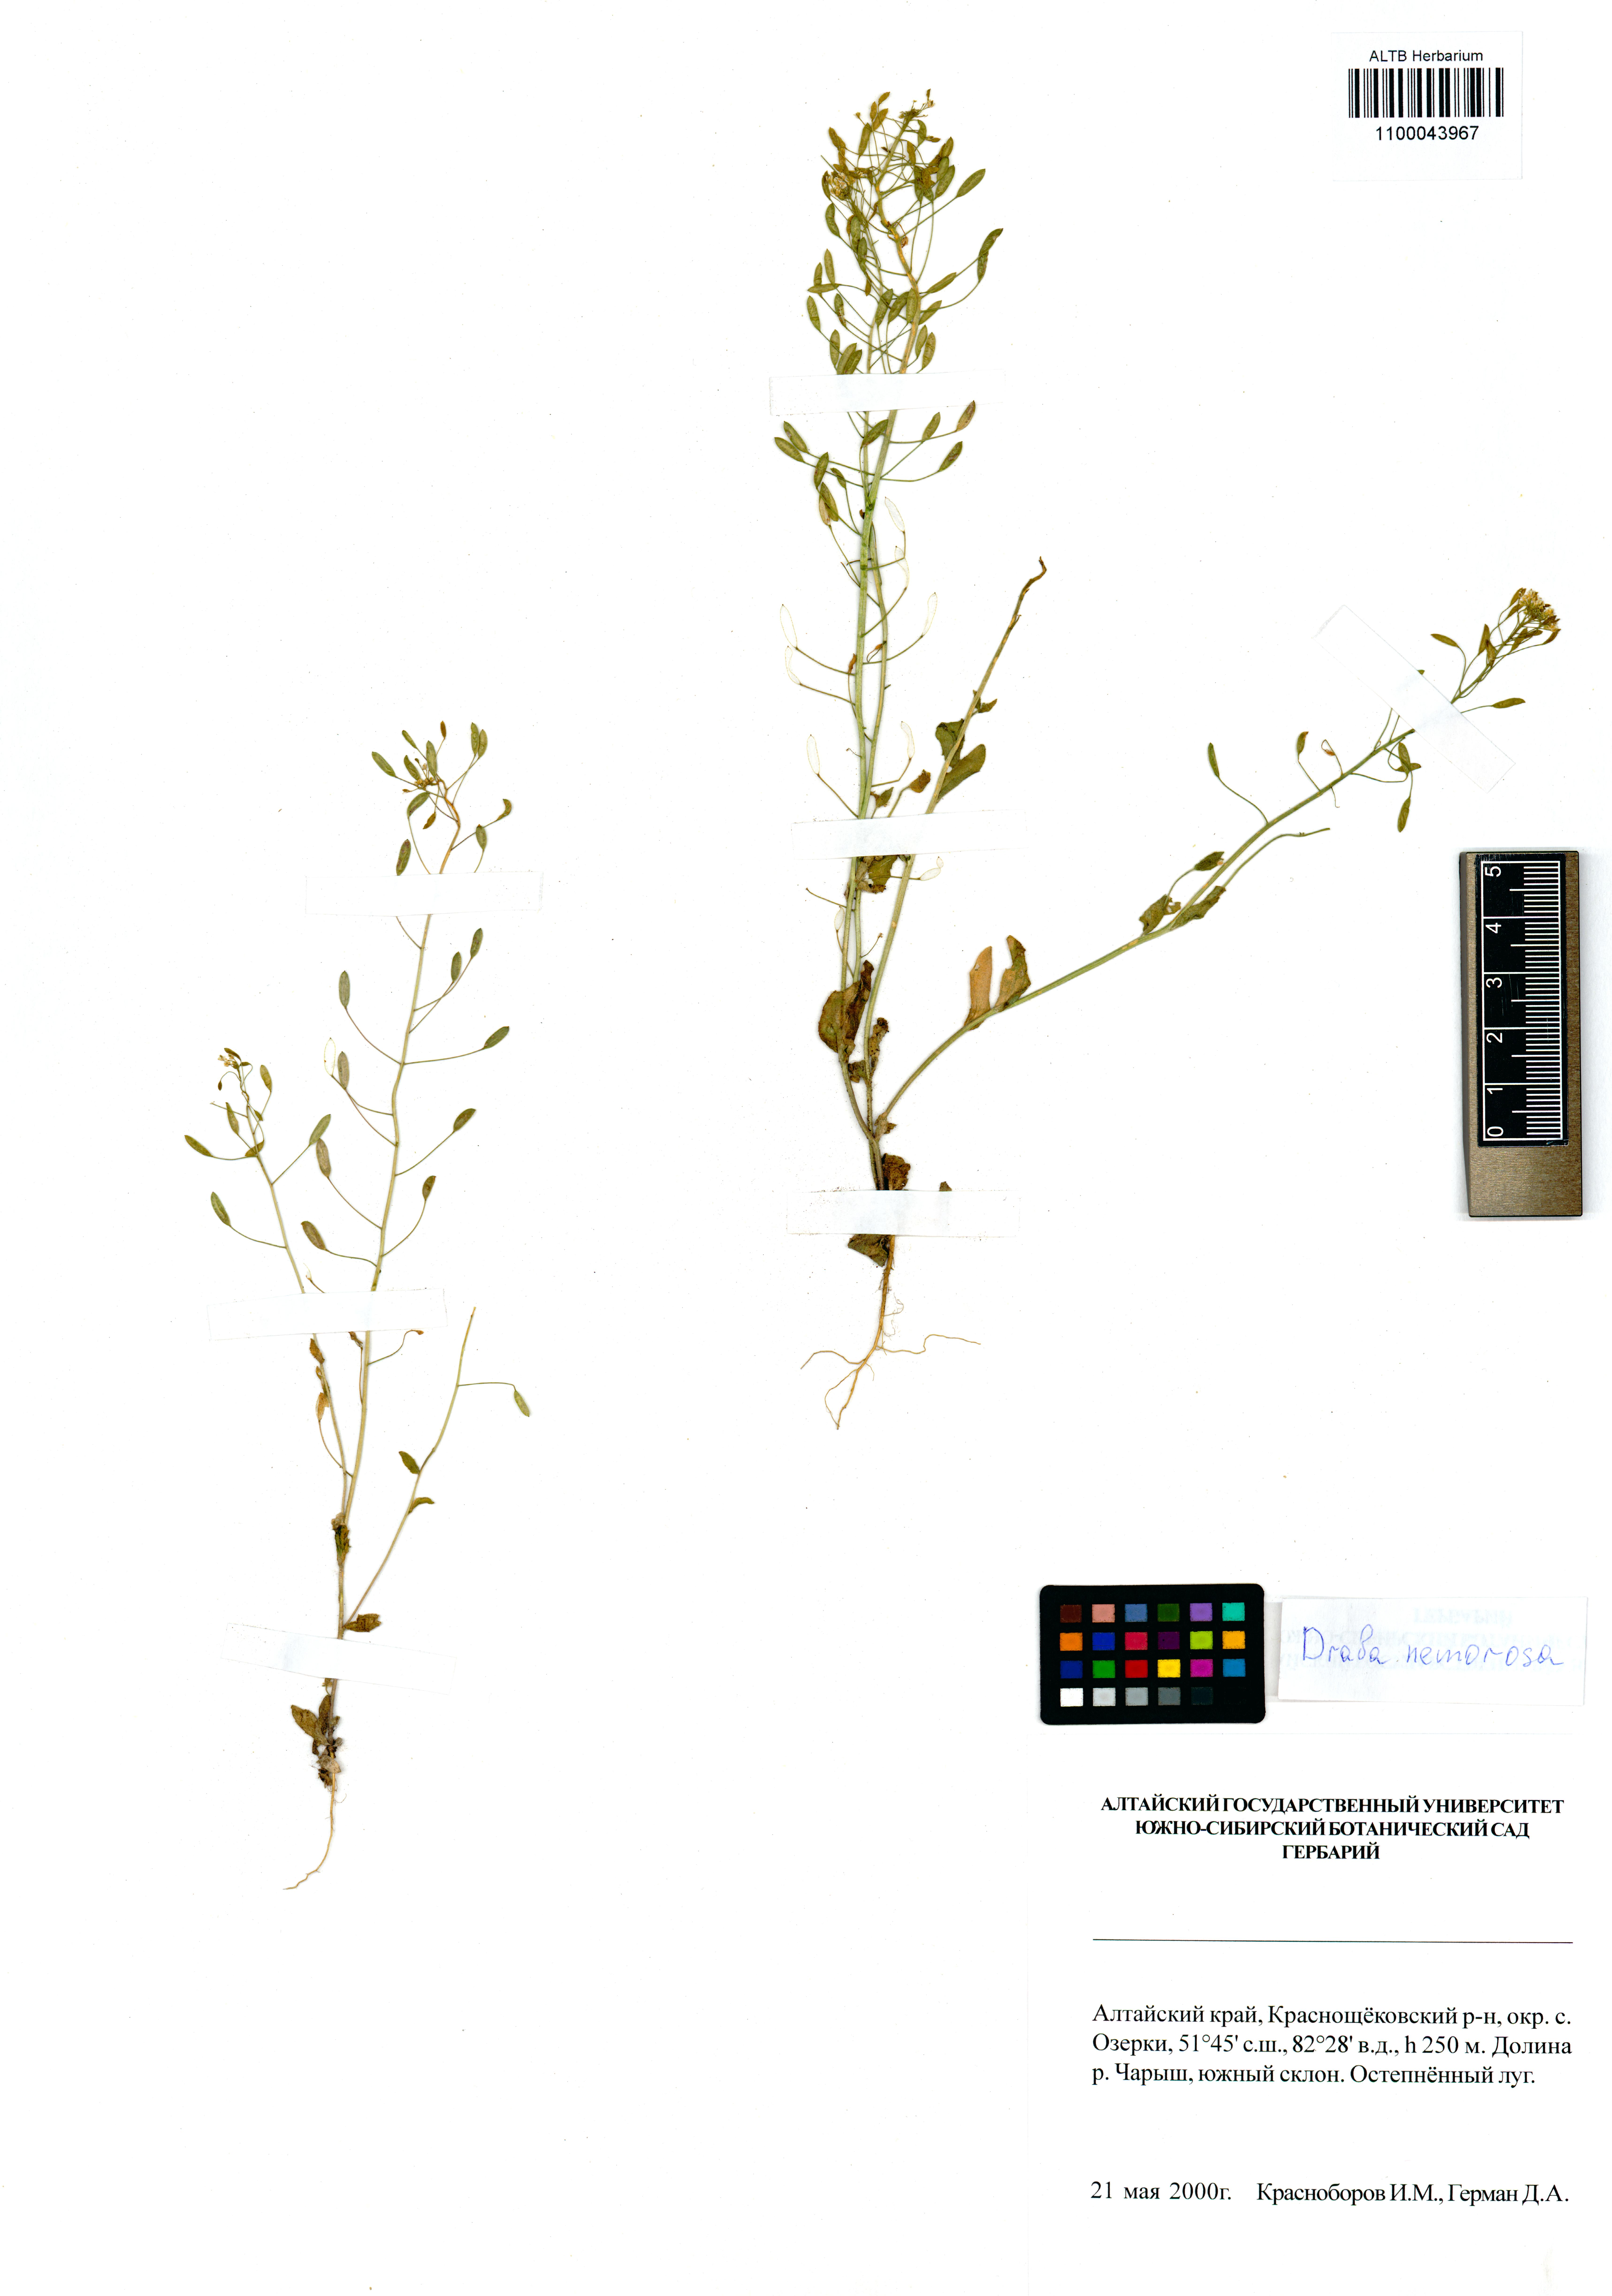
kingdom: Plantae
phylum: Tracheophyta
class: Magnoliopsida
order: Brassicales
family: Brassicaceae
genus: Draba
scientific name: Draba nemorosa
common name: Wood whitlow-grass
